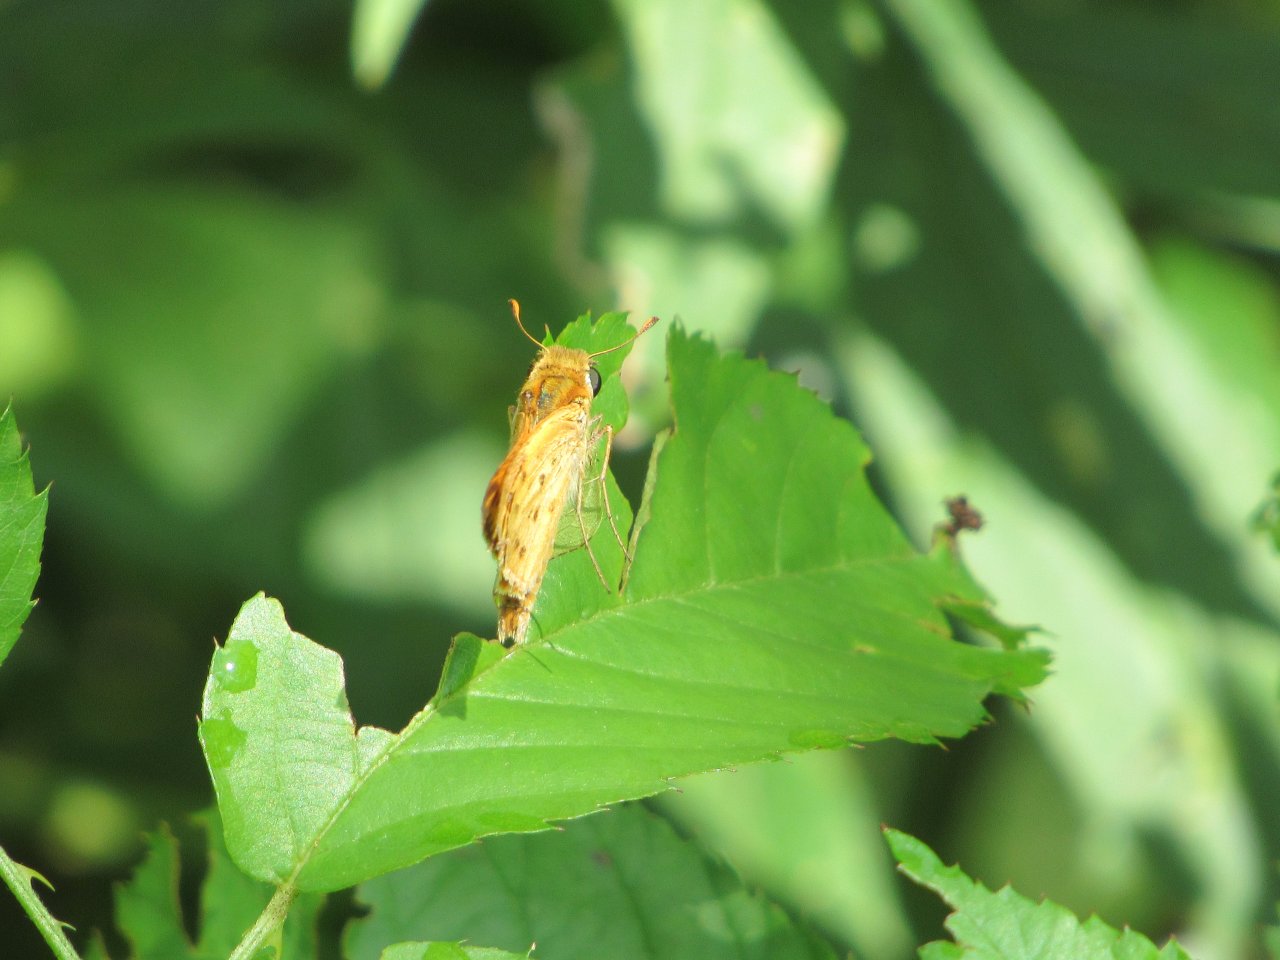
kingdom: Animalia
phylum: Arthropoda
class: Insecta
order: Lepidoptera
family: Hesperiidae
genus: Hylephila
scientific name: Hylephila phyleus
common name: Fiery Skipper
